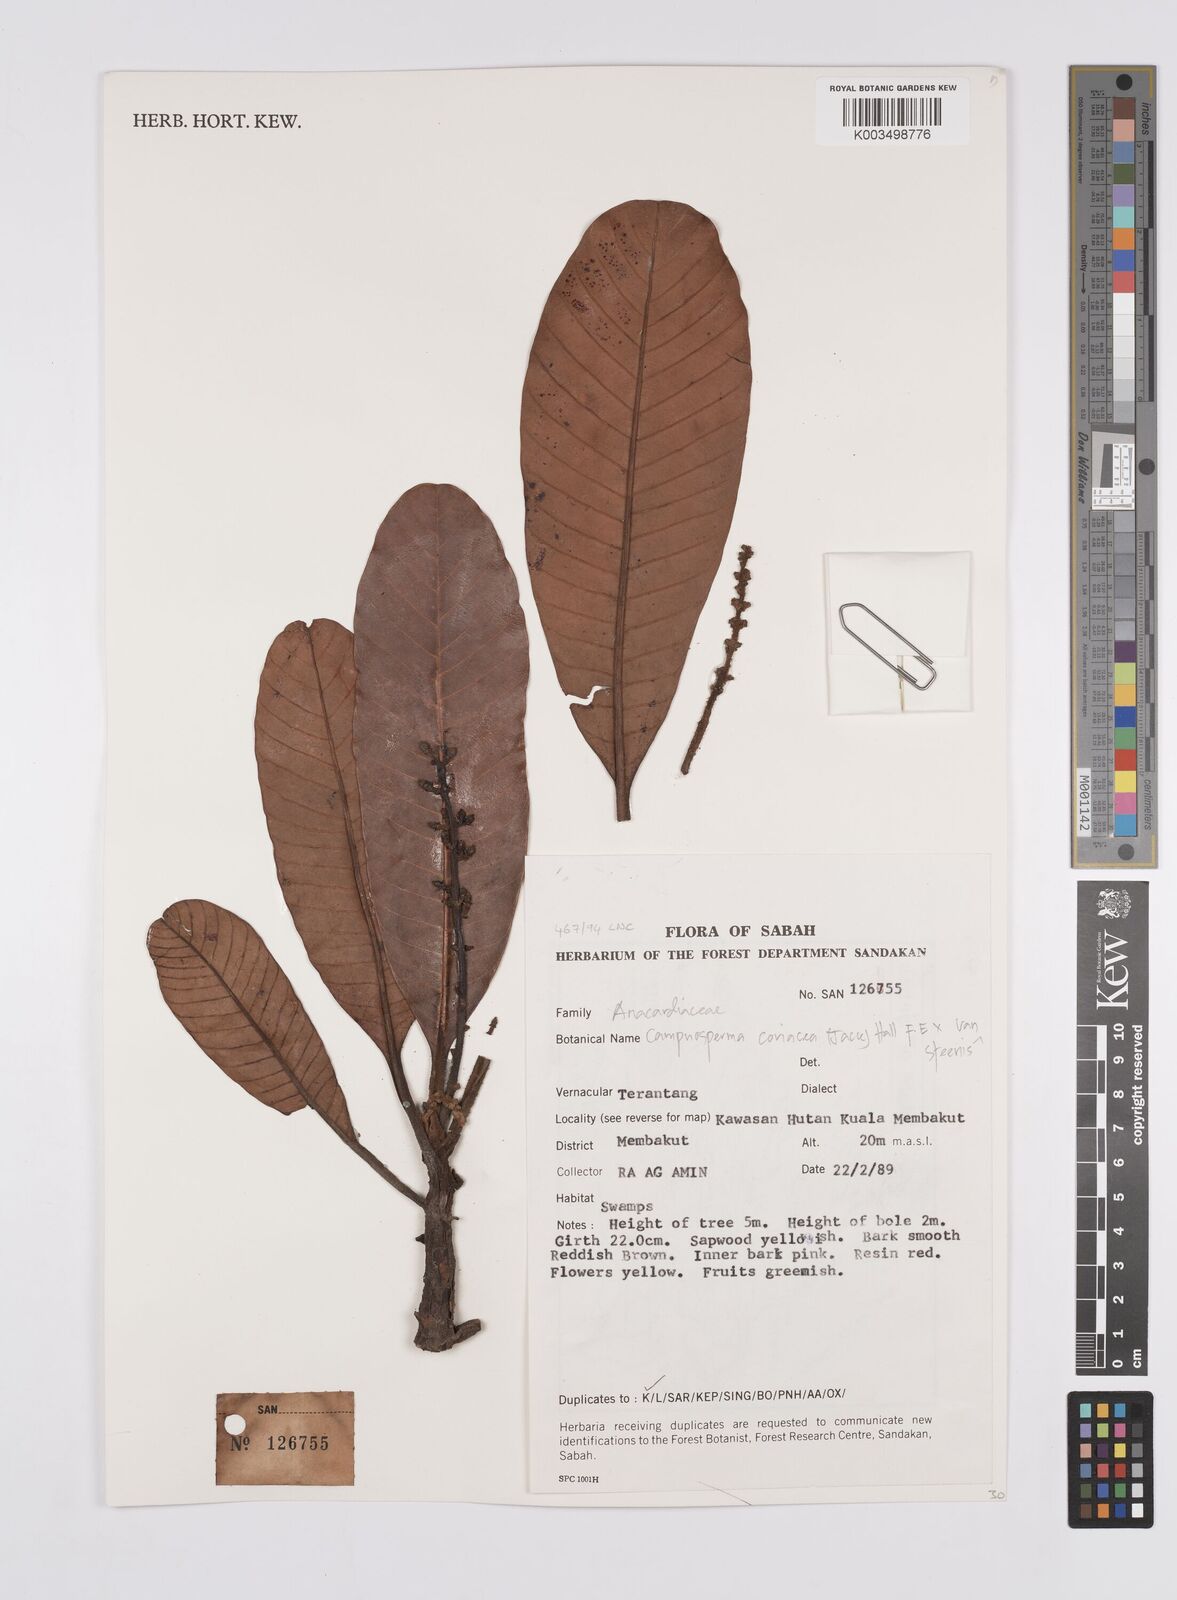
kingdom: Plantae
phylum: Tracheophyta
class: Magnoliopsida
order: Sapindales
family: Anacardiaceae
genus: Campnosperma
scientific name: Campnosperma coriaceum
